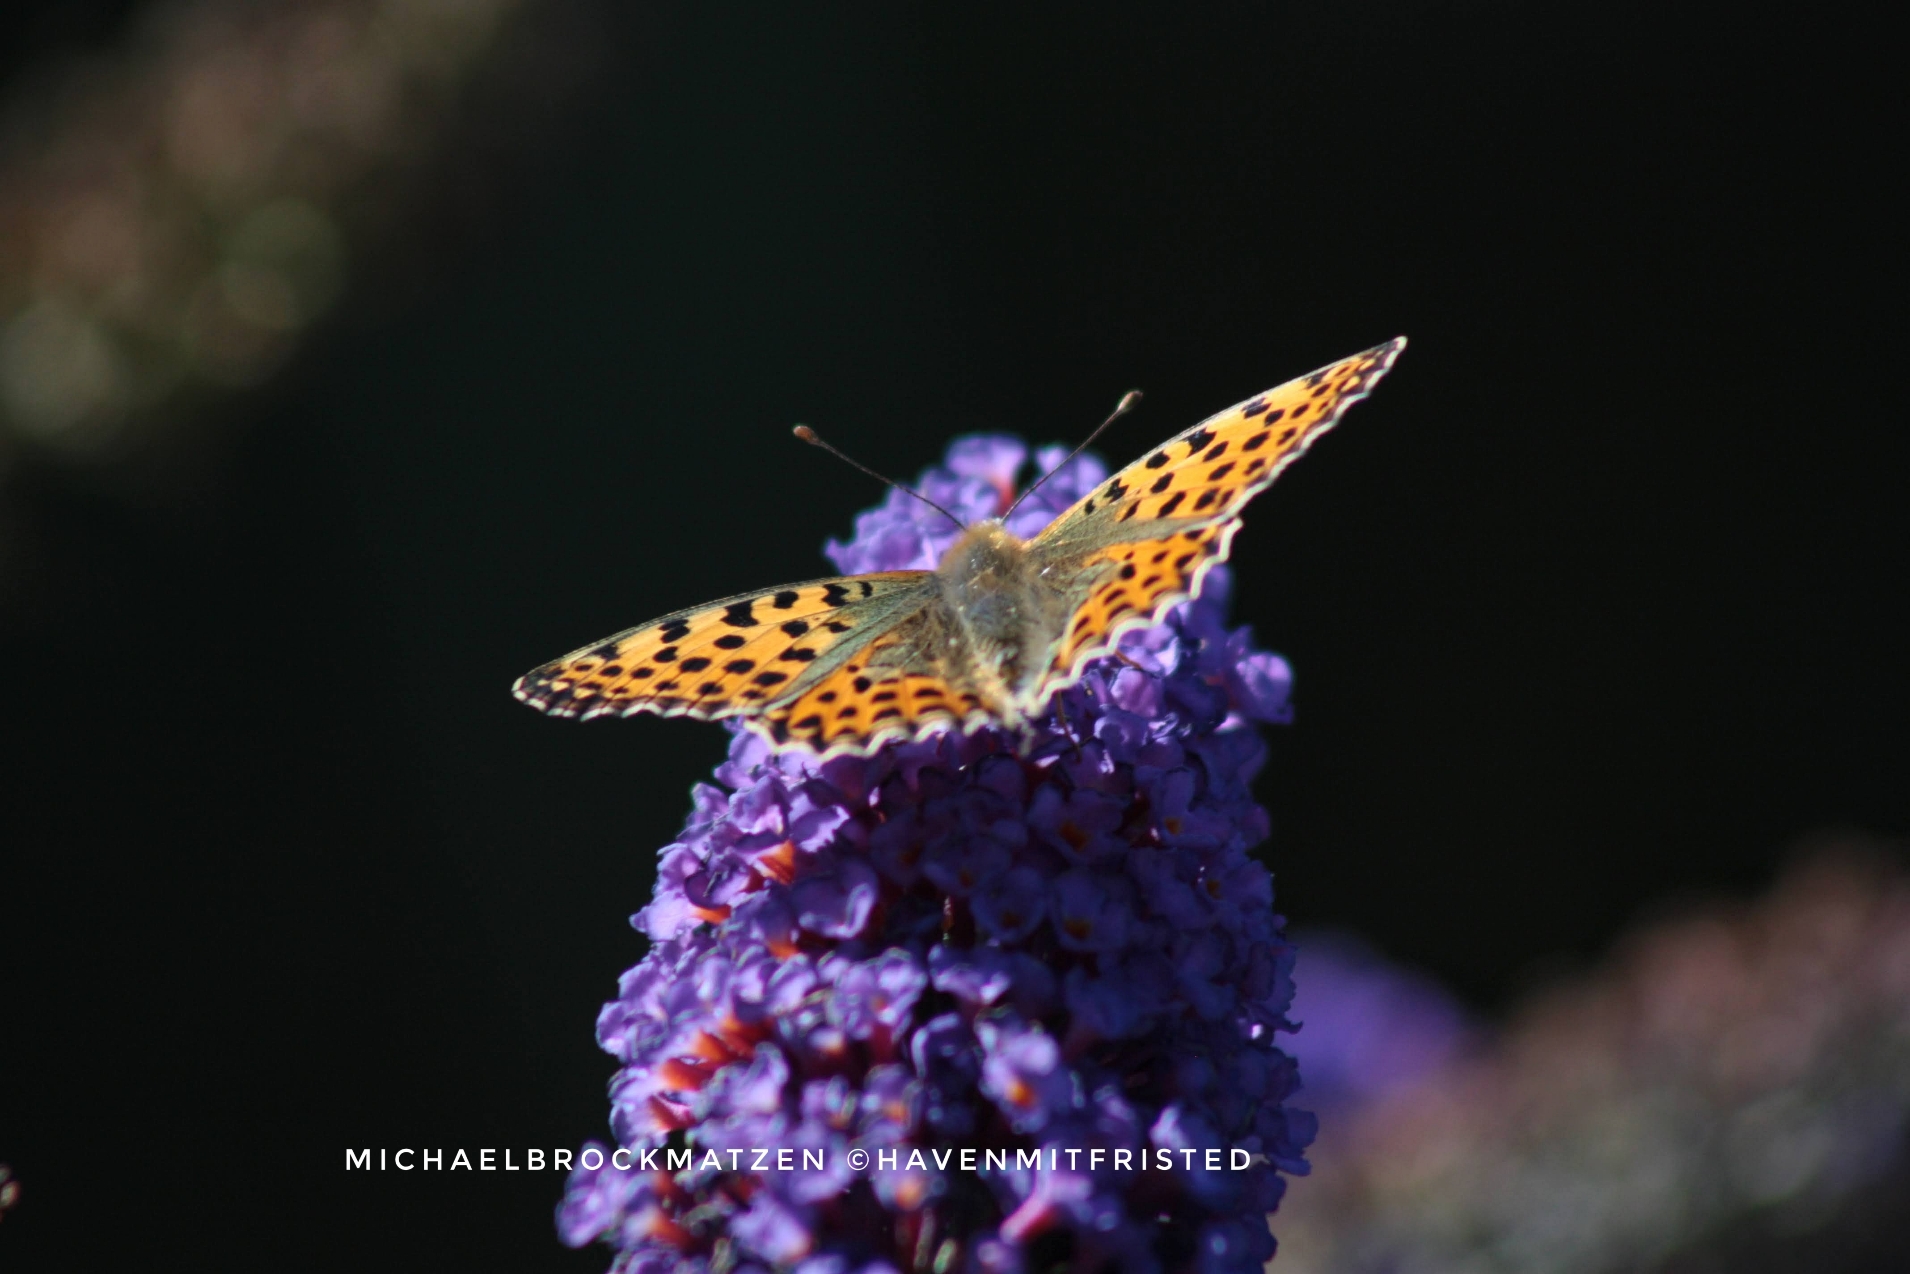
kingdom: Animalia
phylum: Arthropoda
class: Insecta
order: Lepidoptera
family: Nymphalidae
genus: Issoria
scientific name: Issoria lathonia
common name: Storplettet perlemorsommerfugl
